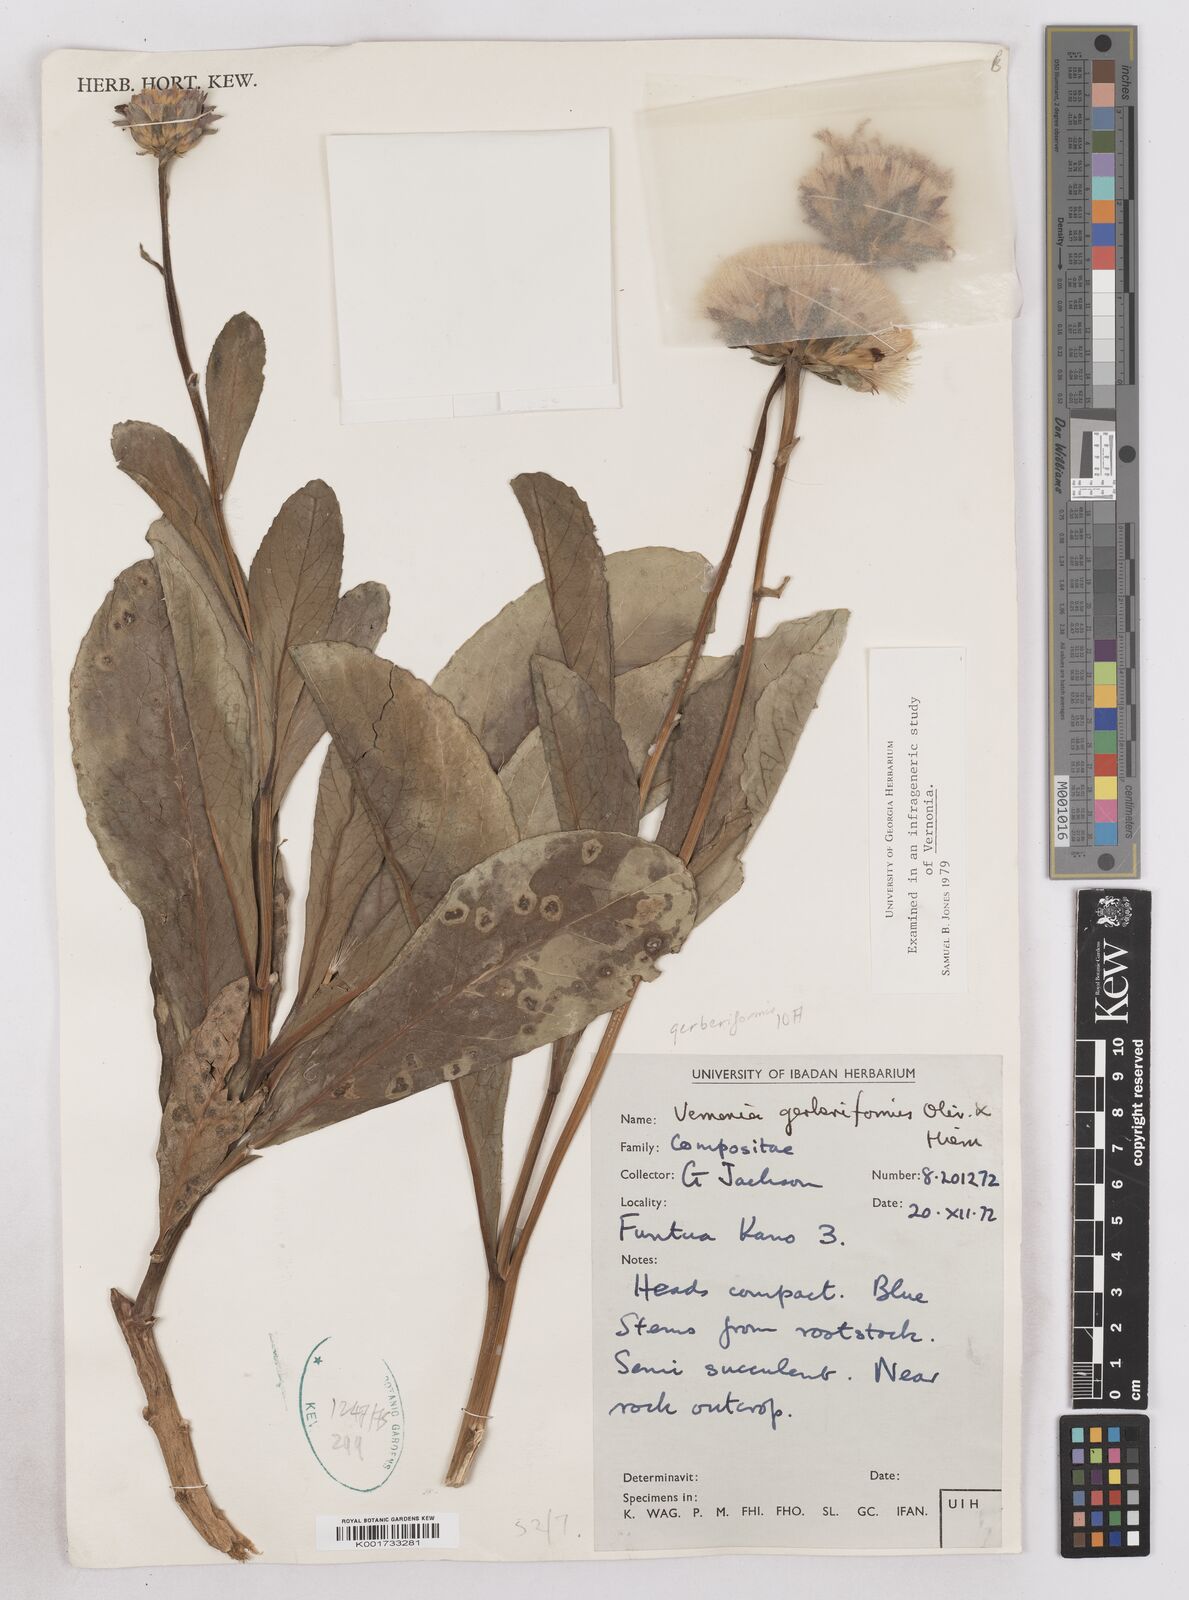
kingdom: Plantae
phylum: Tracheophyta
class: Magnoliopsida
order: Asterales
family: Asteraceae
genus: Linzia
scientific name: Linzia gerberiformis
